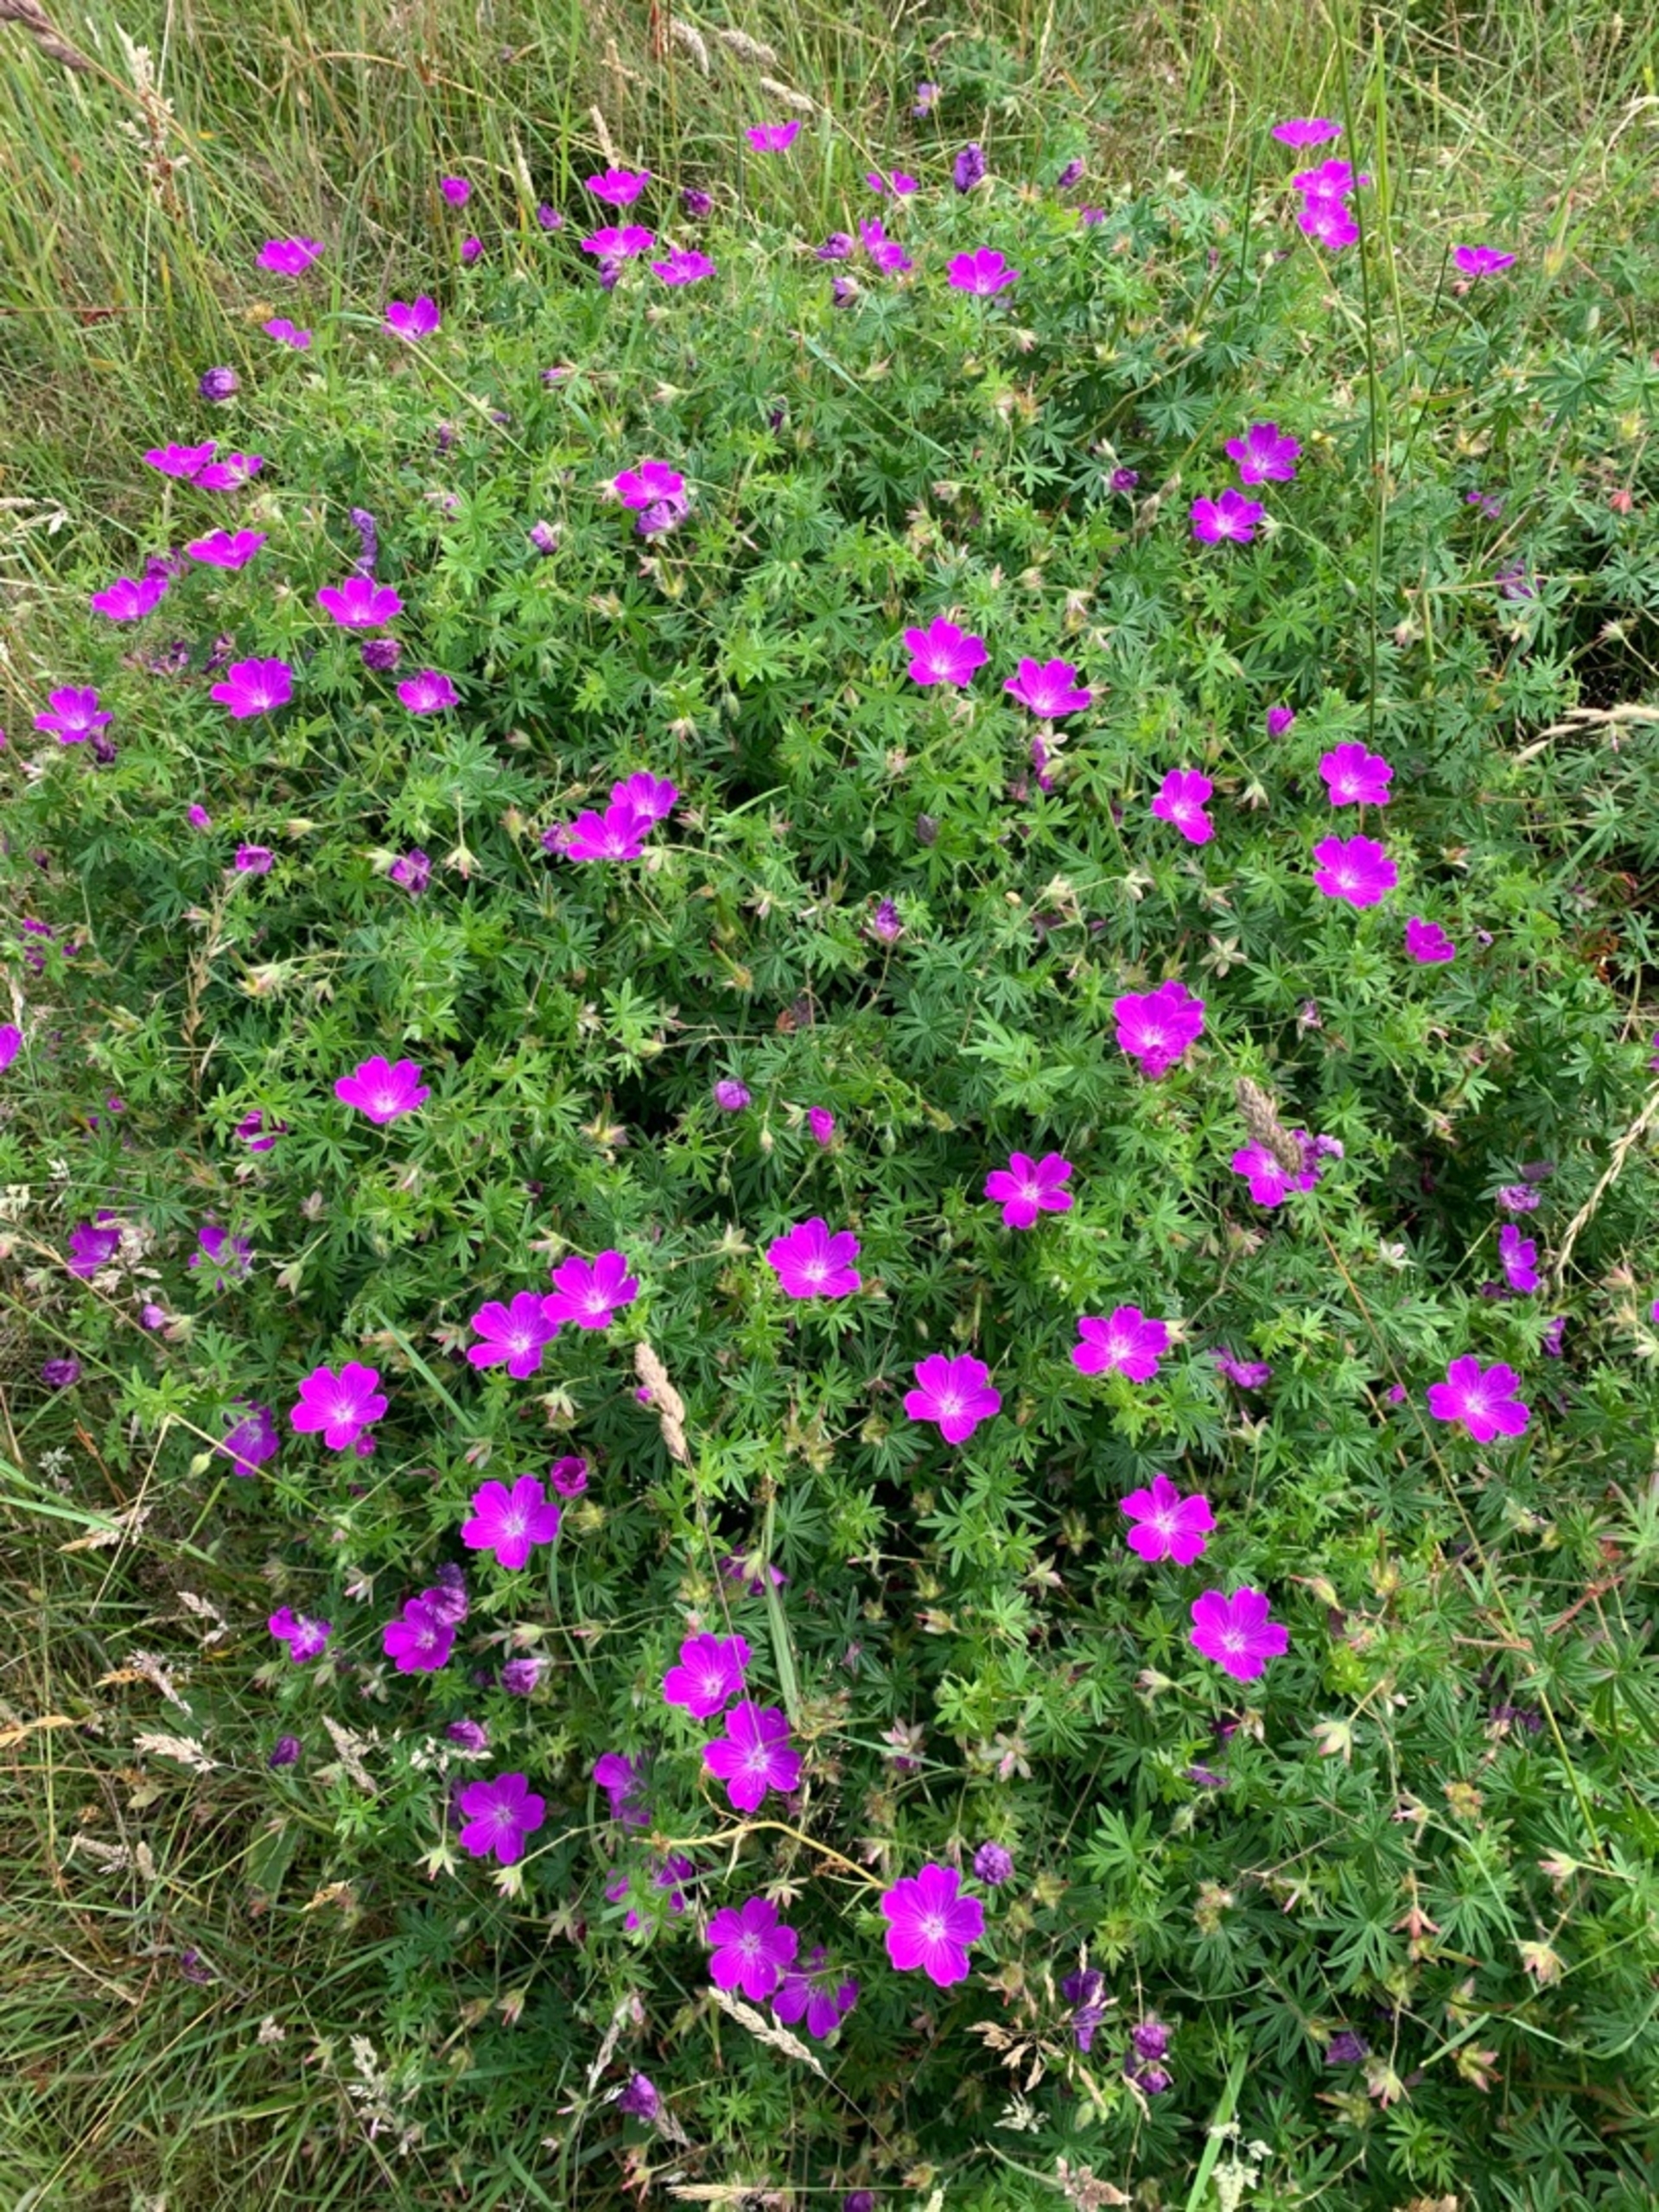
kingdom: Plantae
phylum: Tracheophyta
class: Magnoliopsida
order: Geraniales
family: Geraniaceae
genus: Geranium
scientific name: Geranium sanguineum
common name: Blodrød storkenæb
